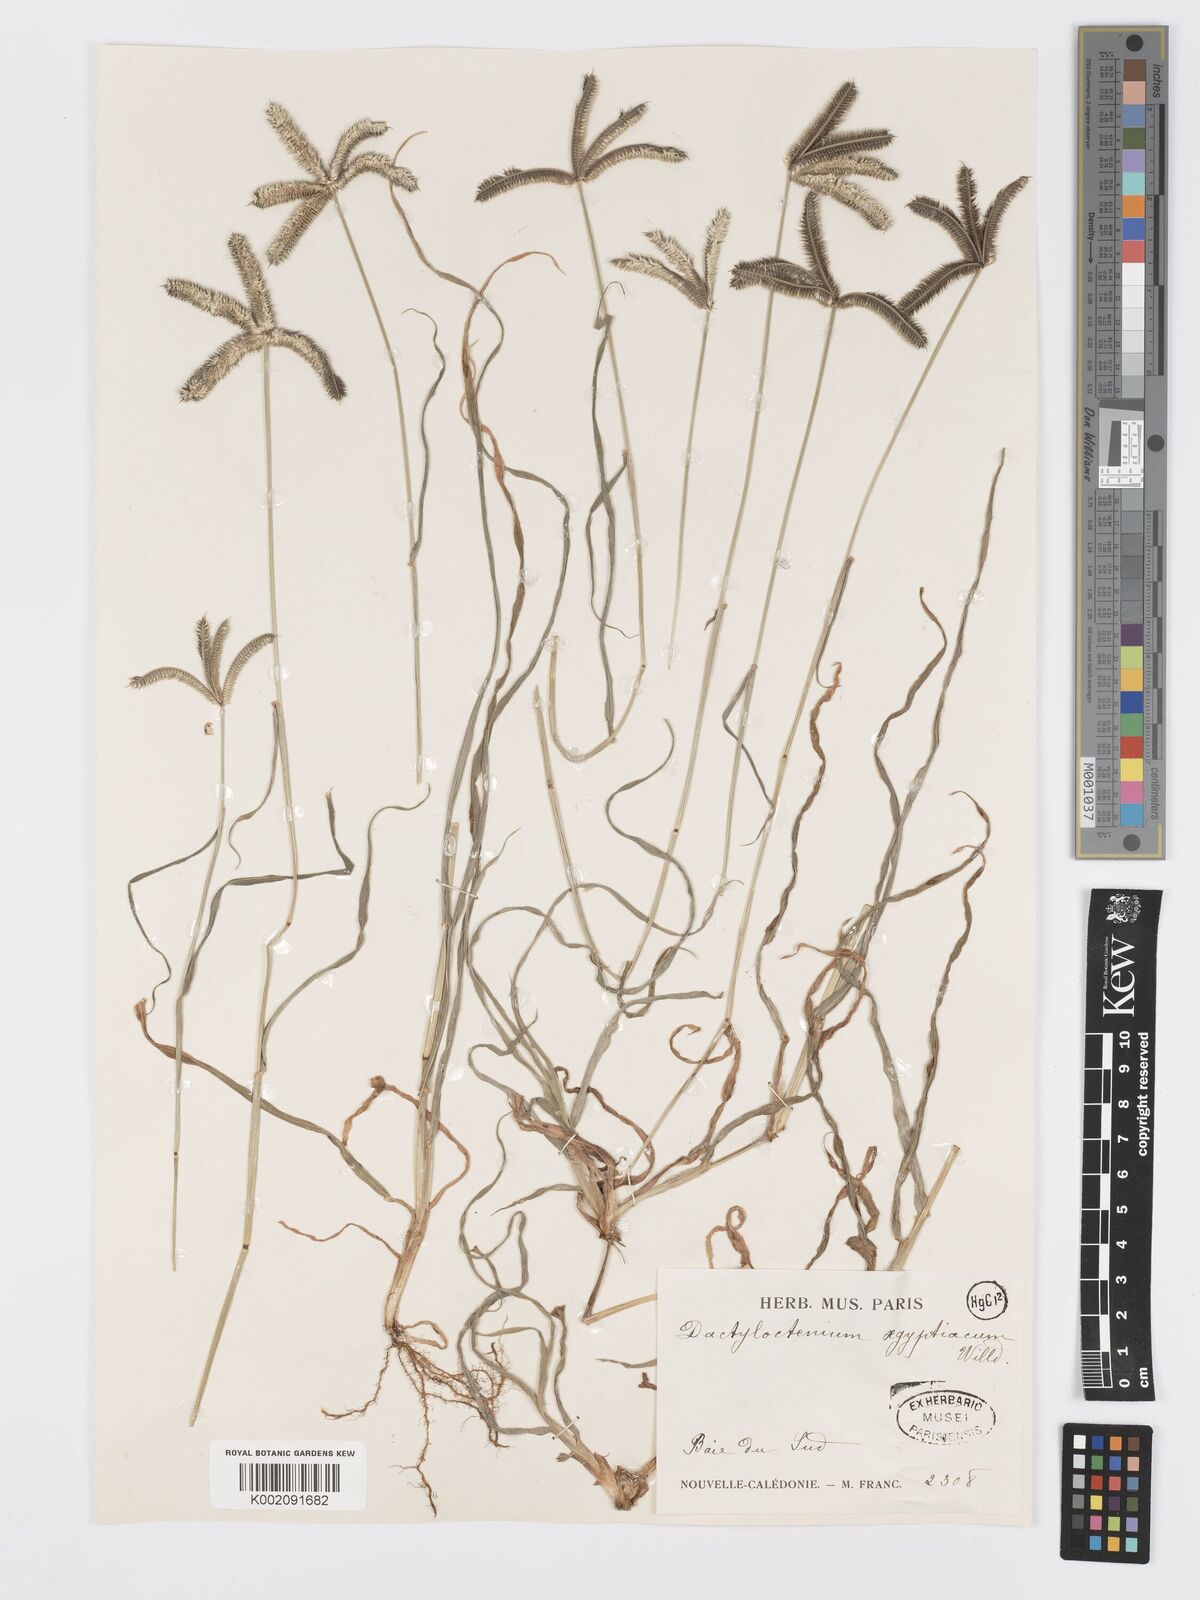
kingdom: Plantae
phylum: Tracheophyta
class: Liliopsida
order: Poales
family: Poaceae
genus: Dactyloctenium
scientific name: Dactyloctenium aegyptium
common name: Egyptian grass
